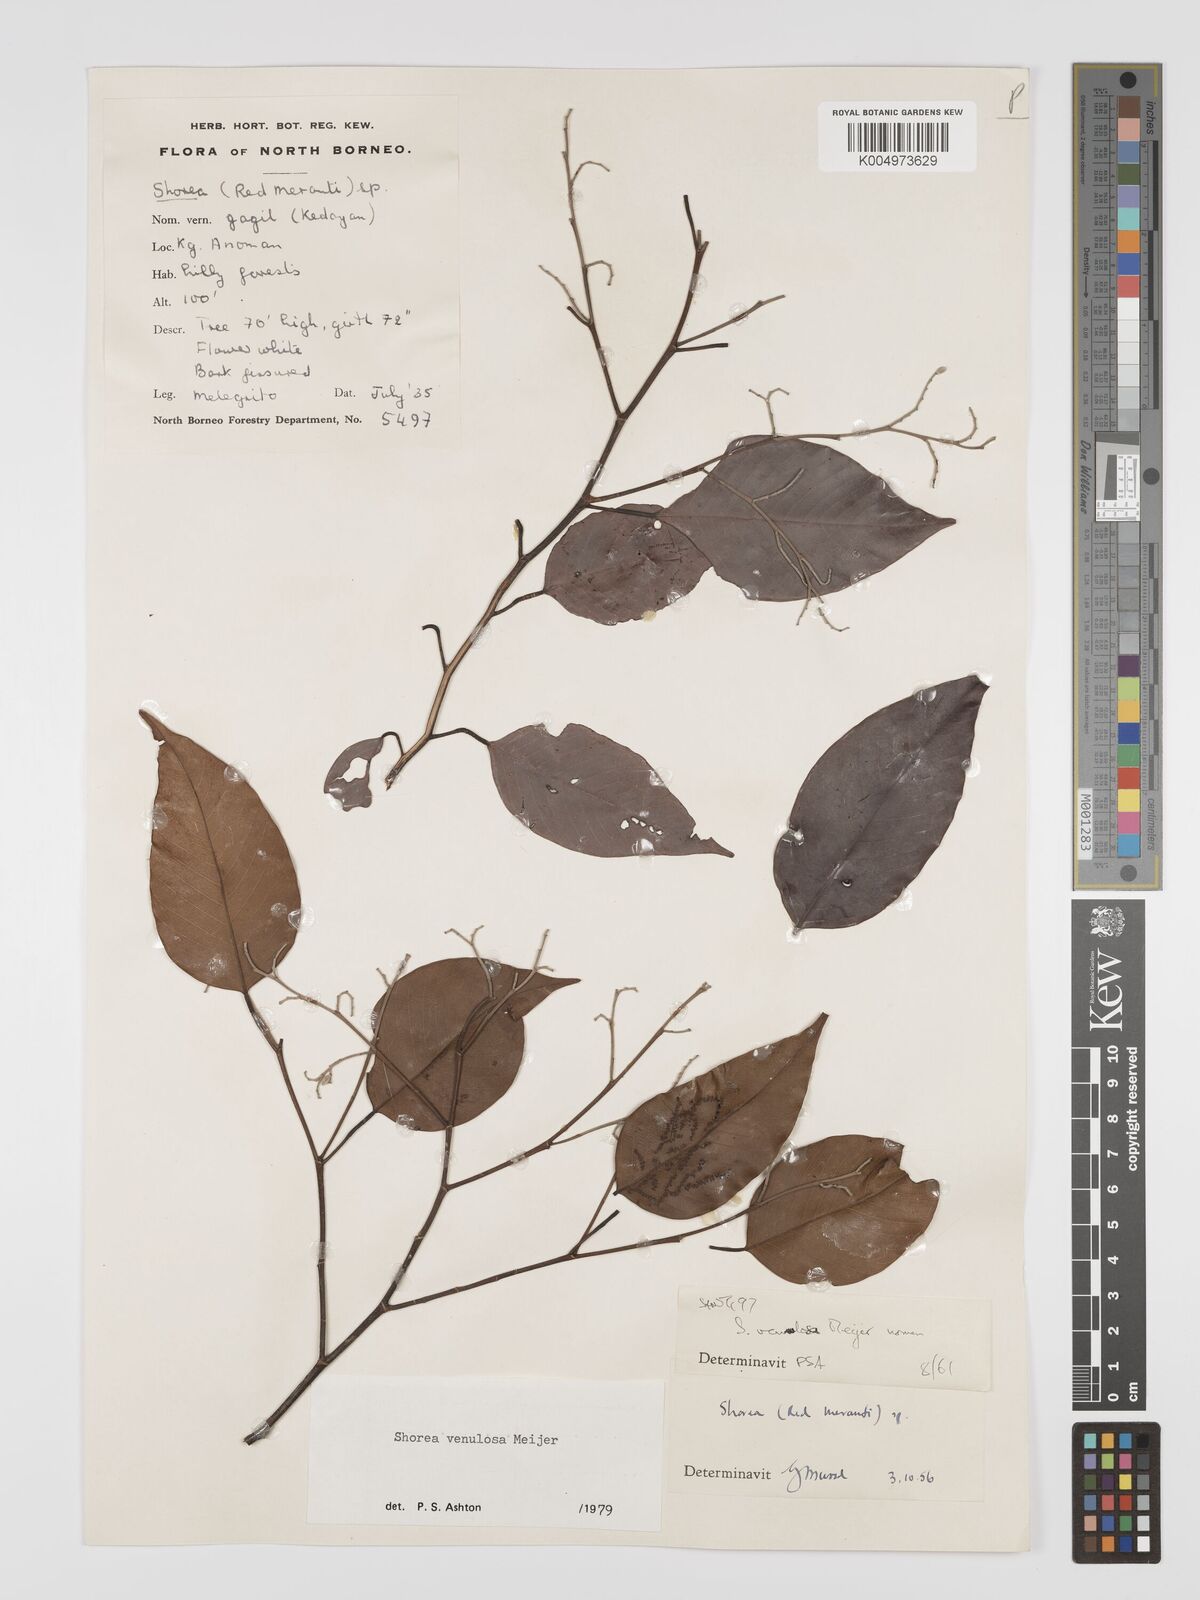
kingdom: Plantae
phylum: Tracheophyta
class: Magnoliopsida
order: Malvales
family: Dipterocarpaceae
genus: Shorea
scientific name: Shorea venulosa
